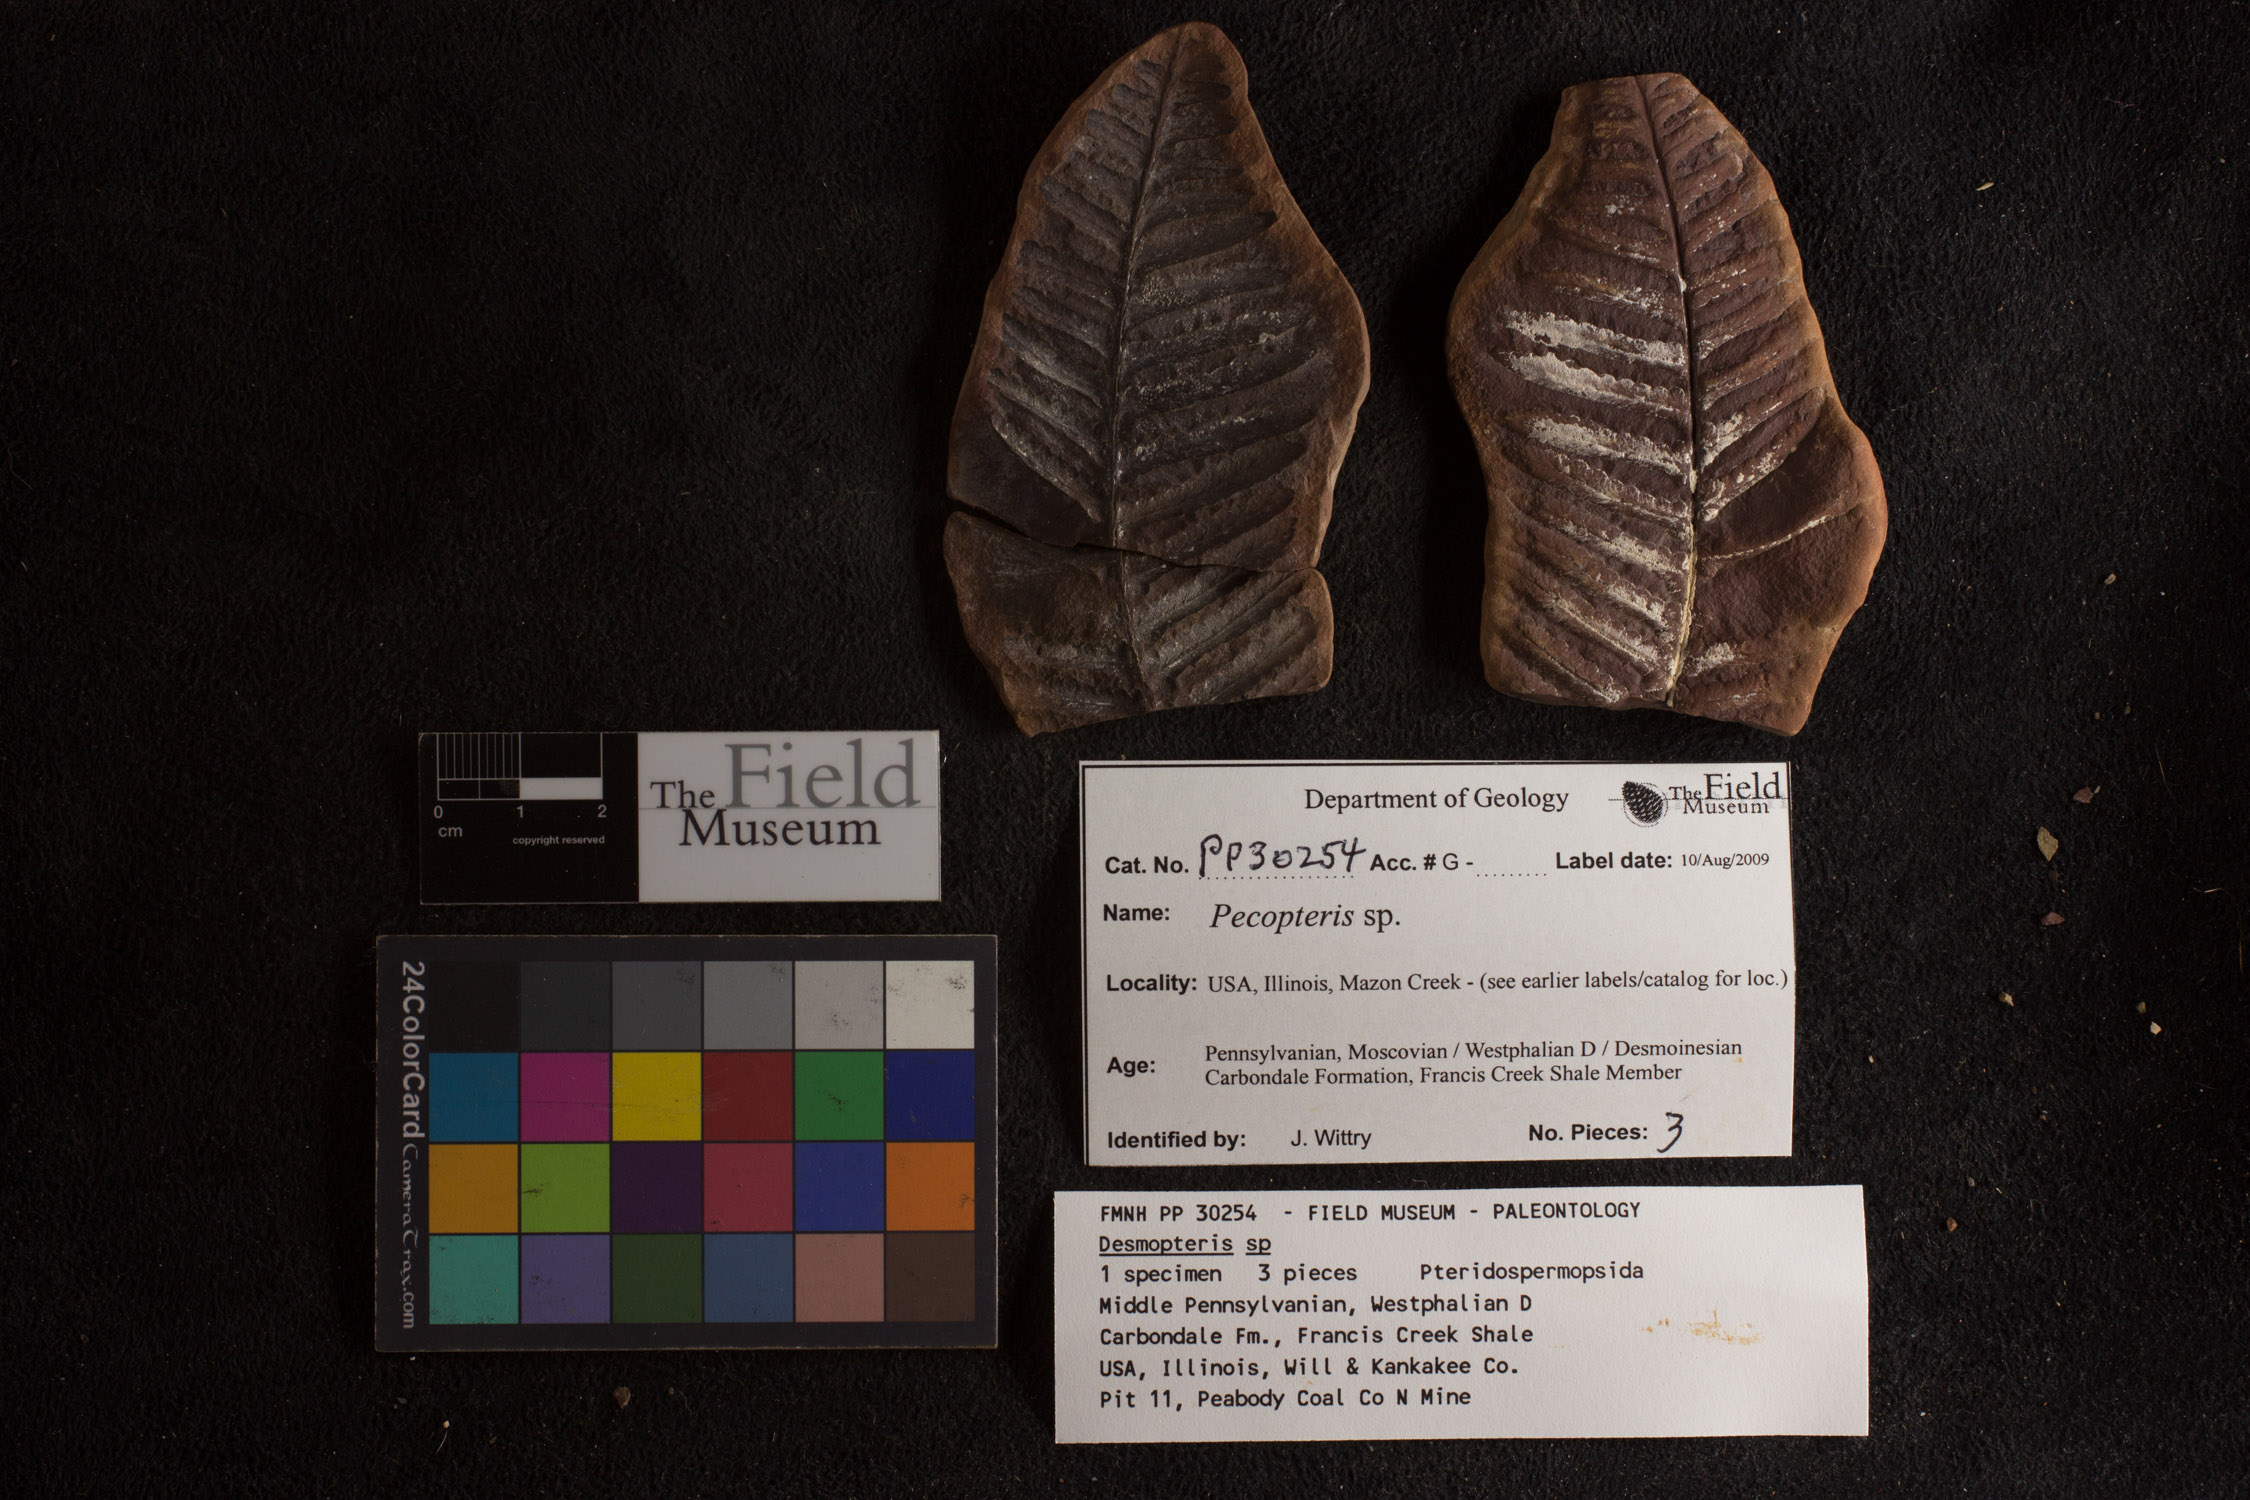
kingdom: Plantae
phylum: Tracheophyta
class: Polypodiopsida
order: Marattiales
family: Asterothecaceae
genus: Pecopteris
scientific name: Pecopteris
